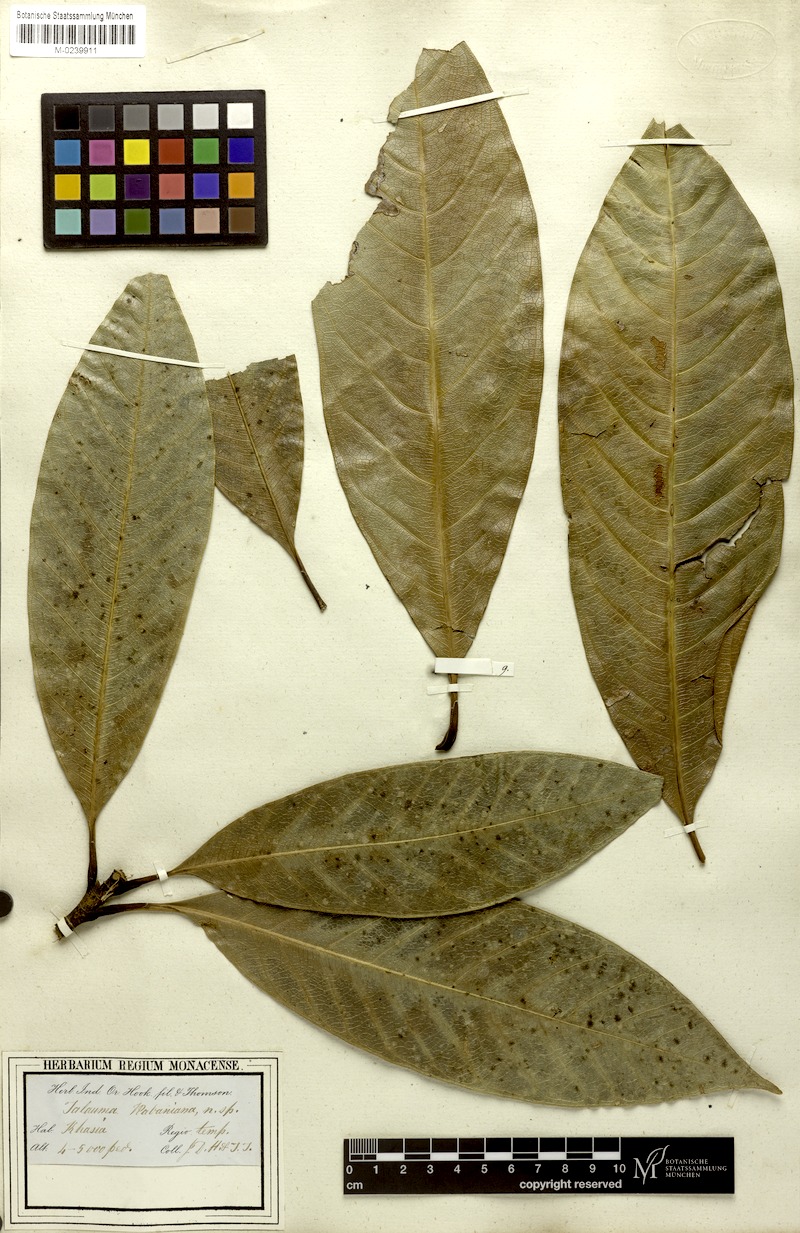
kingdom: Plantae
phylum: Tracheophyta
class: Magnoliopsida
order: Magnoliales
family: Magnoliaceae
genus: Magnolia
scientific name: Magnolia rabaniana
